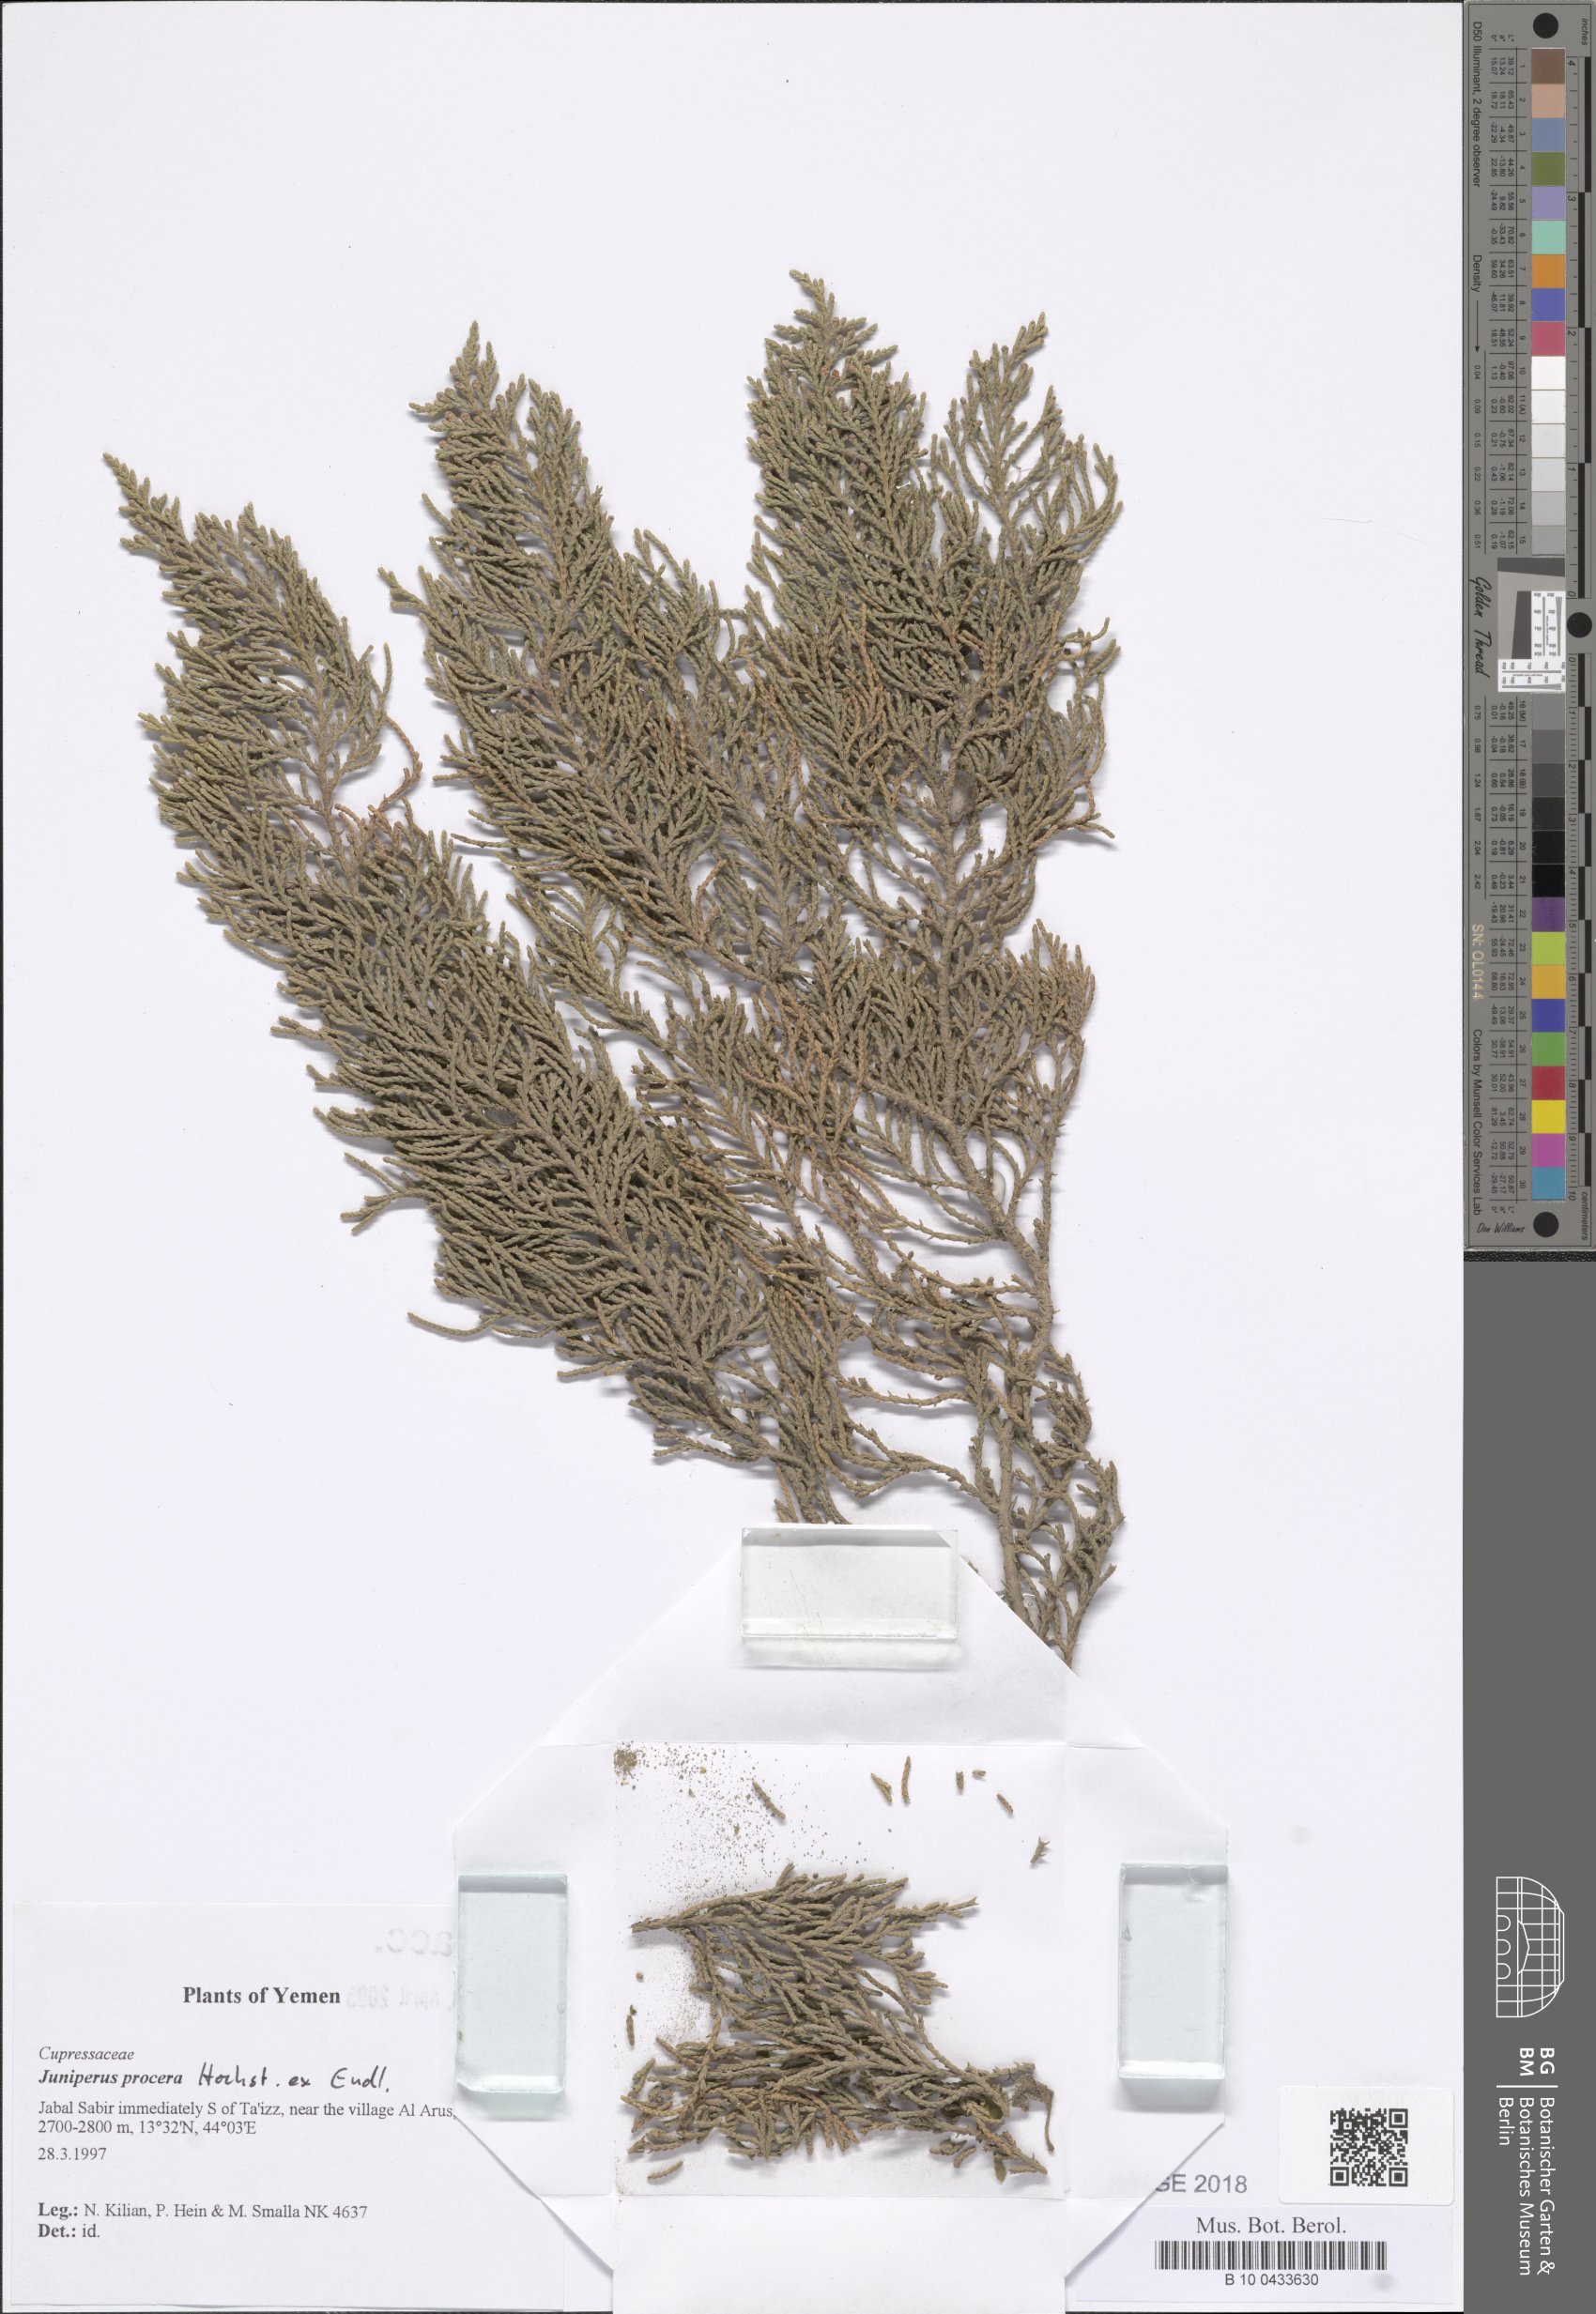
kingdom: Plantae
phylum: Tracheophyta
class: Pinopsida
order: Pinales
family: Cupressaceae
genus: Juniperus
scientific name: Juniperus procera
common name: African juniper
